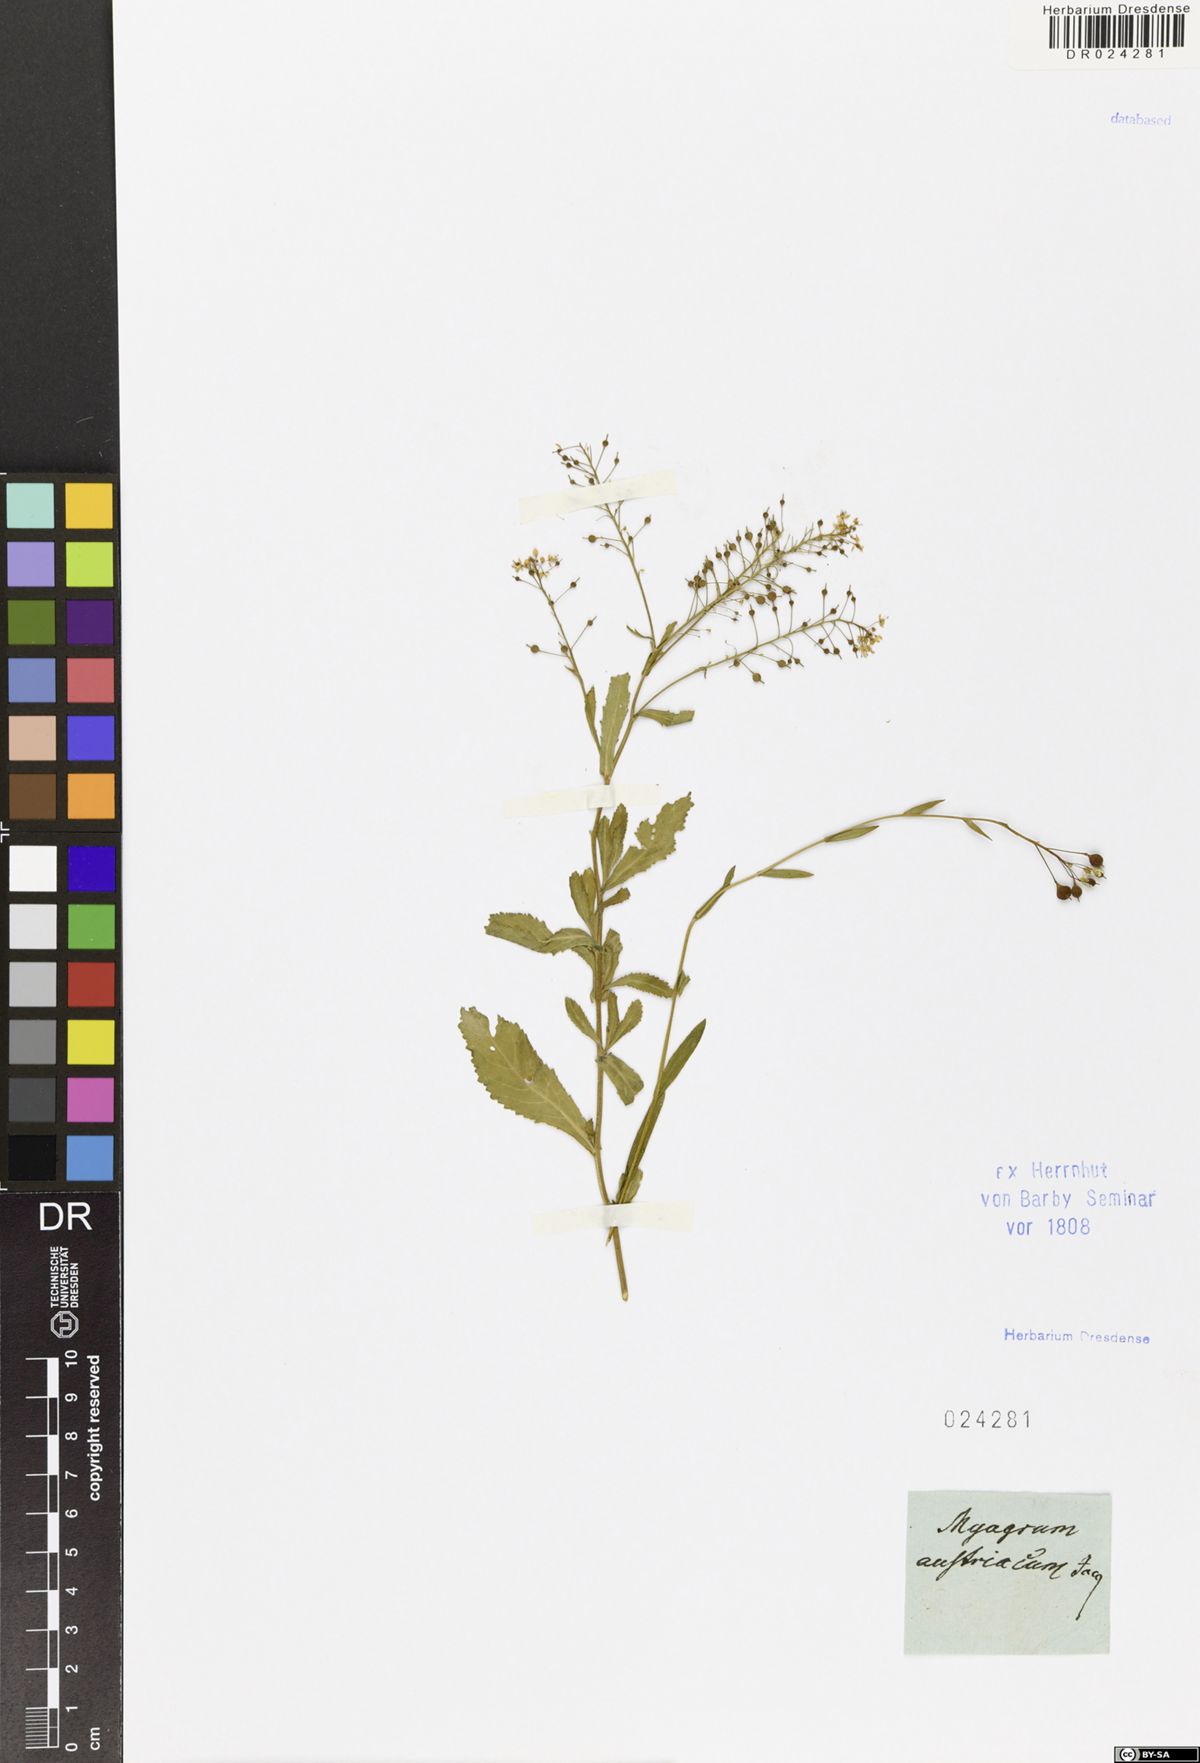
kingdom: Plantae
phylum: Tracheophyta
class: Magnoliopsida
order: Brassicales
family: Brassicaceae
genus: Rorippa
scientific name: Rorippa austriaca
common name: Austrian yellow-cress
